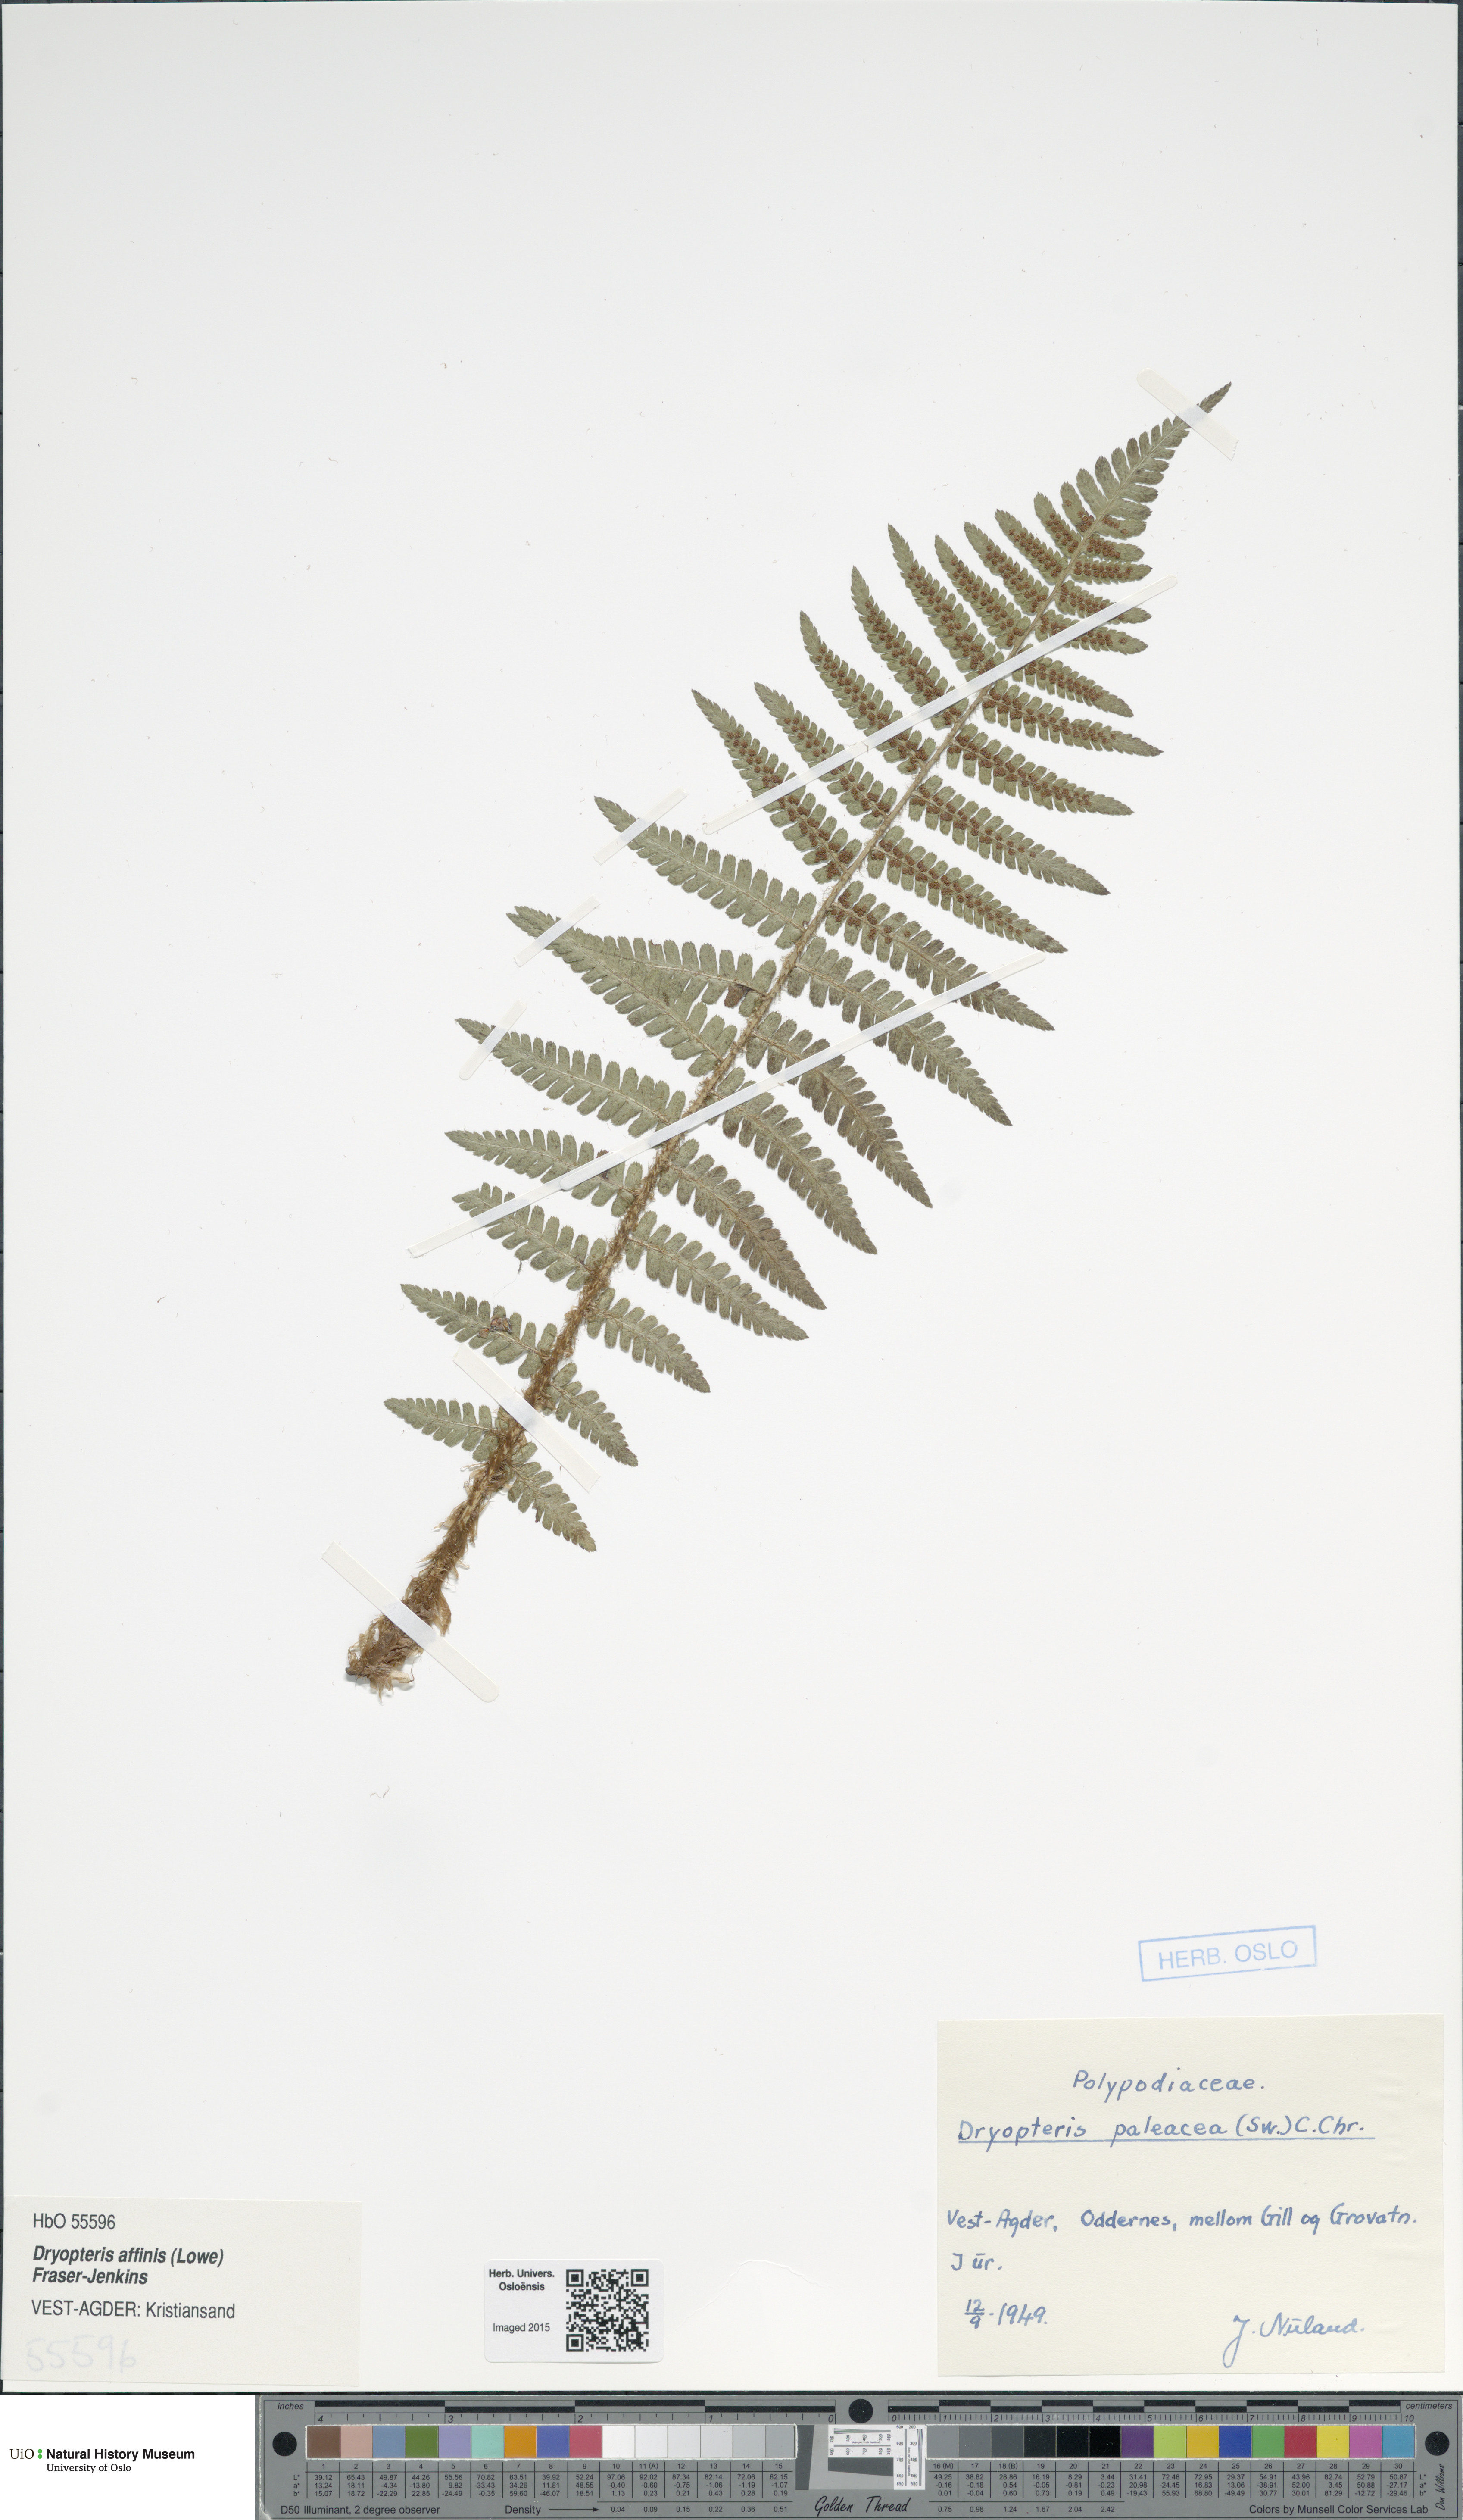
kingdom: Plantae
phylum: Tracheophyta
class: Polypodiopsida
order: Polypodiales
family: Dryopteridaceae
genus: Dryopteris
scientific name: Dryopteris wallichiana
